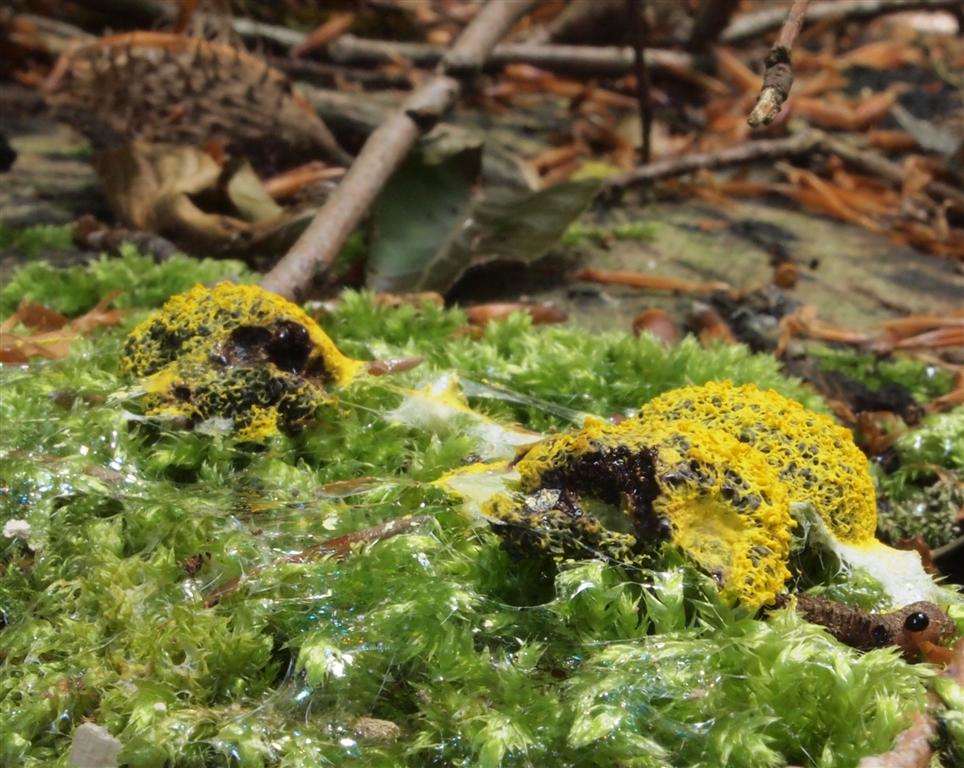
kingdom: Protozoa
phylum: Mycetozoa
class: Myxomycetes
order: Physarales
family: Physaraceae
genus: Fuligo
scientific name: Fuligo septica
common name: gul troldsmør
